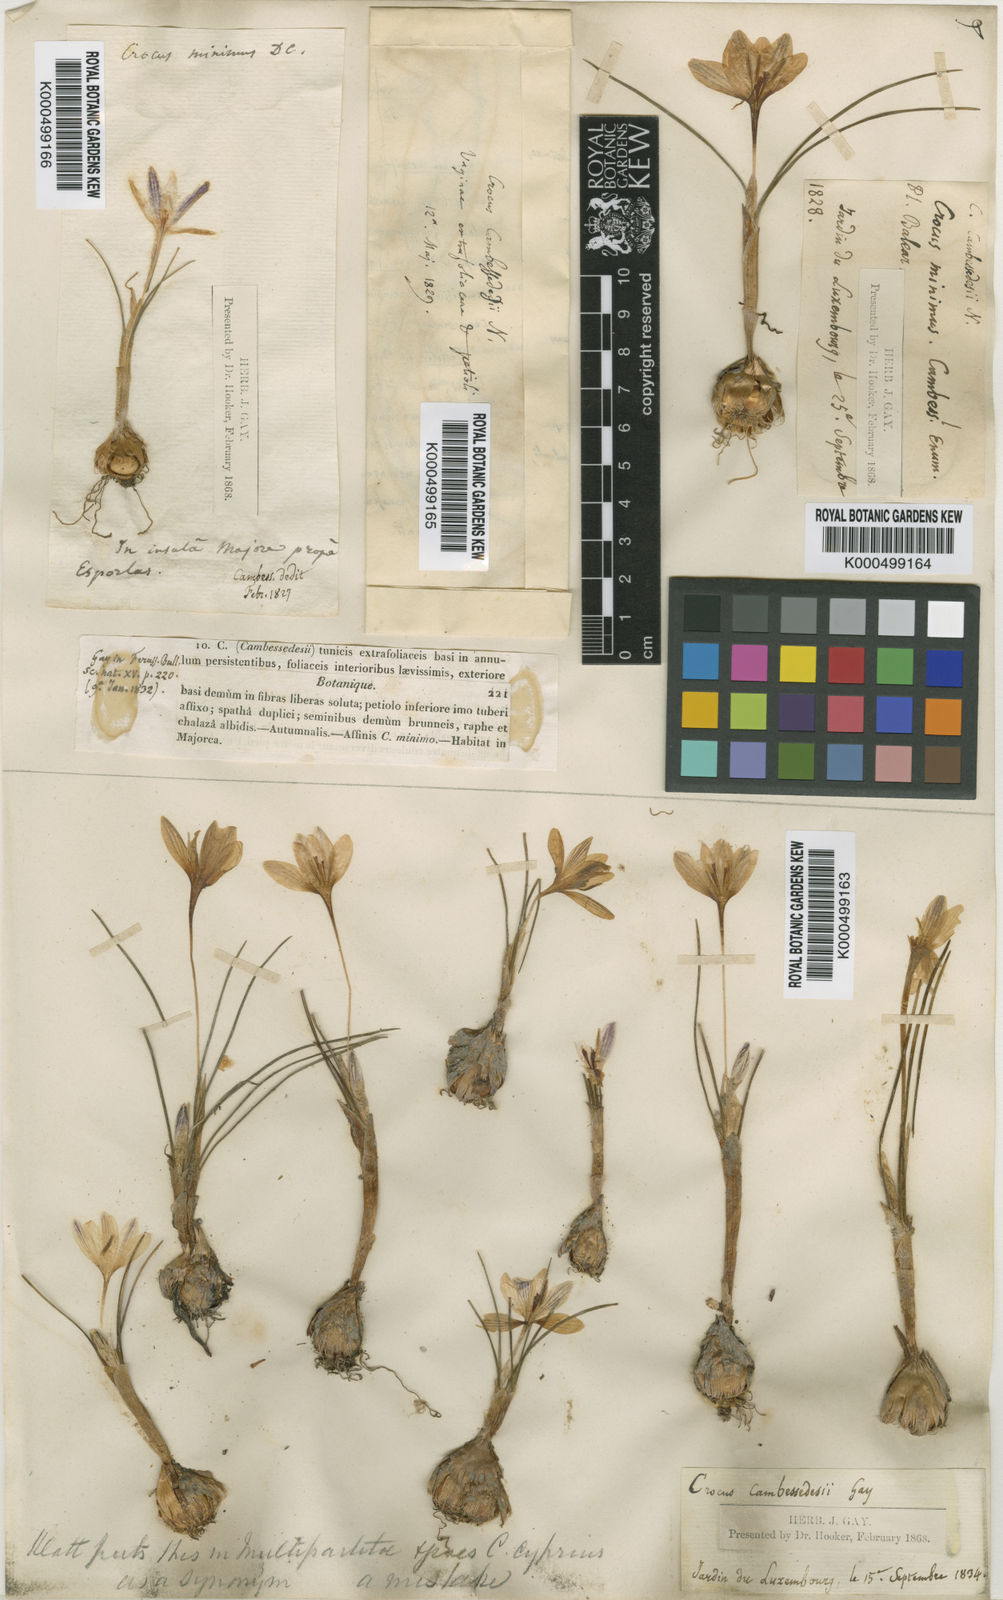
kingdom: Plantae
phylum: Tracheophyta
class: Liliopsida
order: Asparagales
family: Iridaceae
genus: Crocus
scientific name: Crocus cambessedesii
